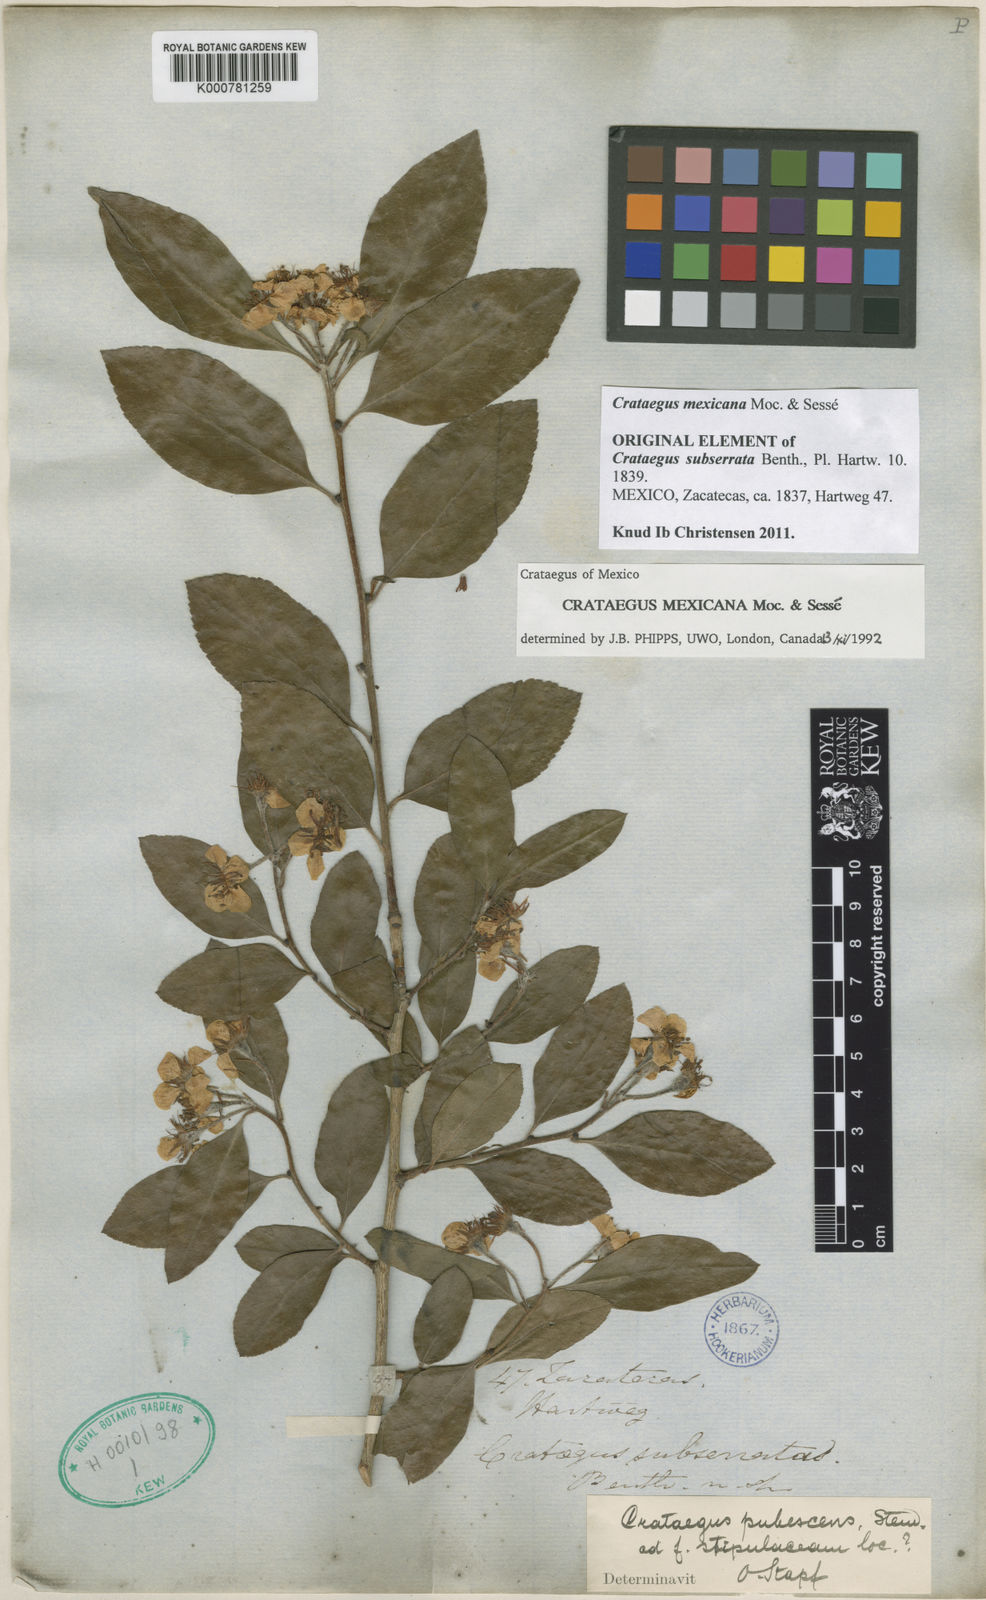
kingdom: Plantae
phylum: Tracheophyta
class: Magnoliopsida
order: Rosales
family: Rosaceae
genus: Crataegus
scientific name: Crataegus
